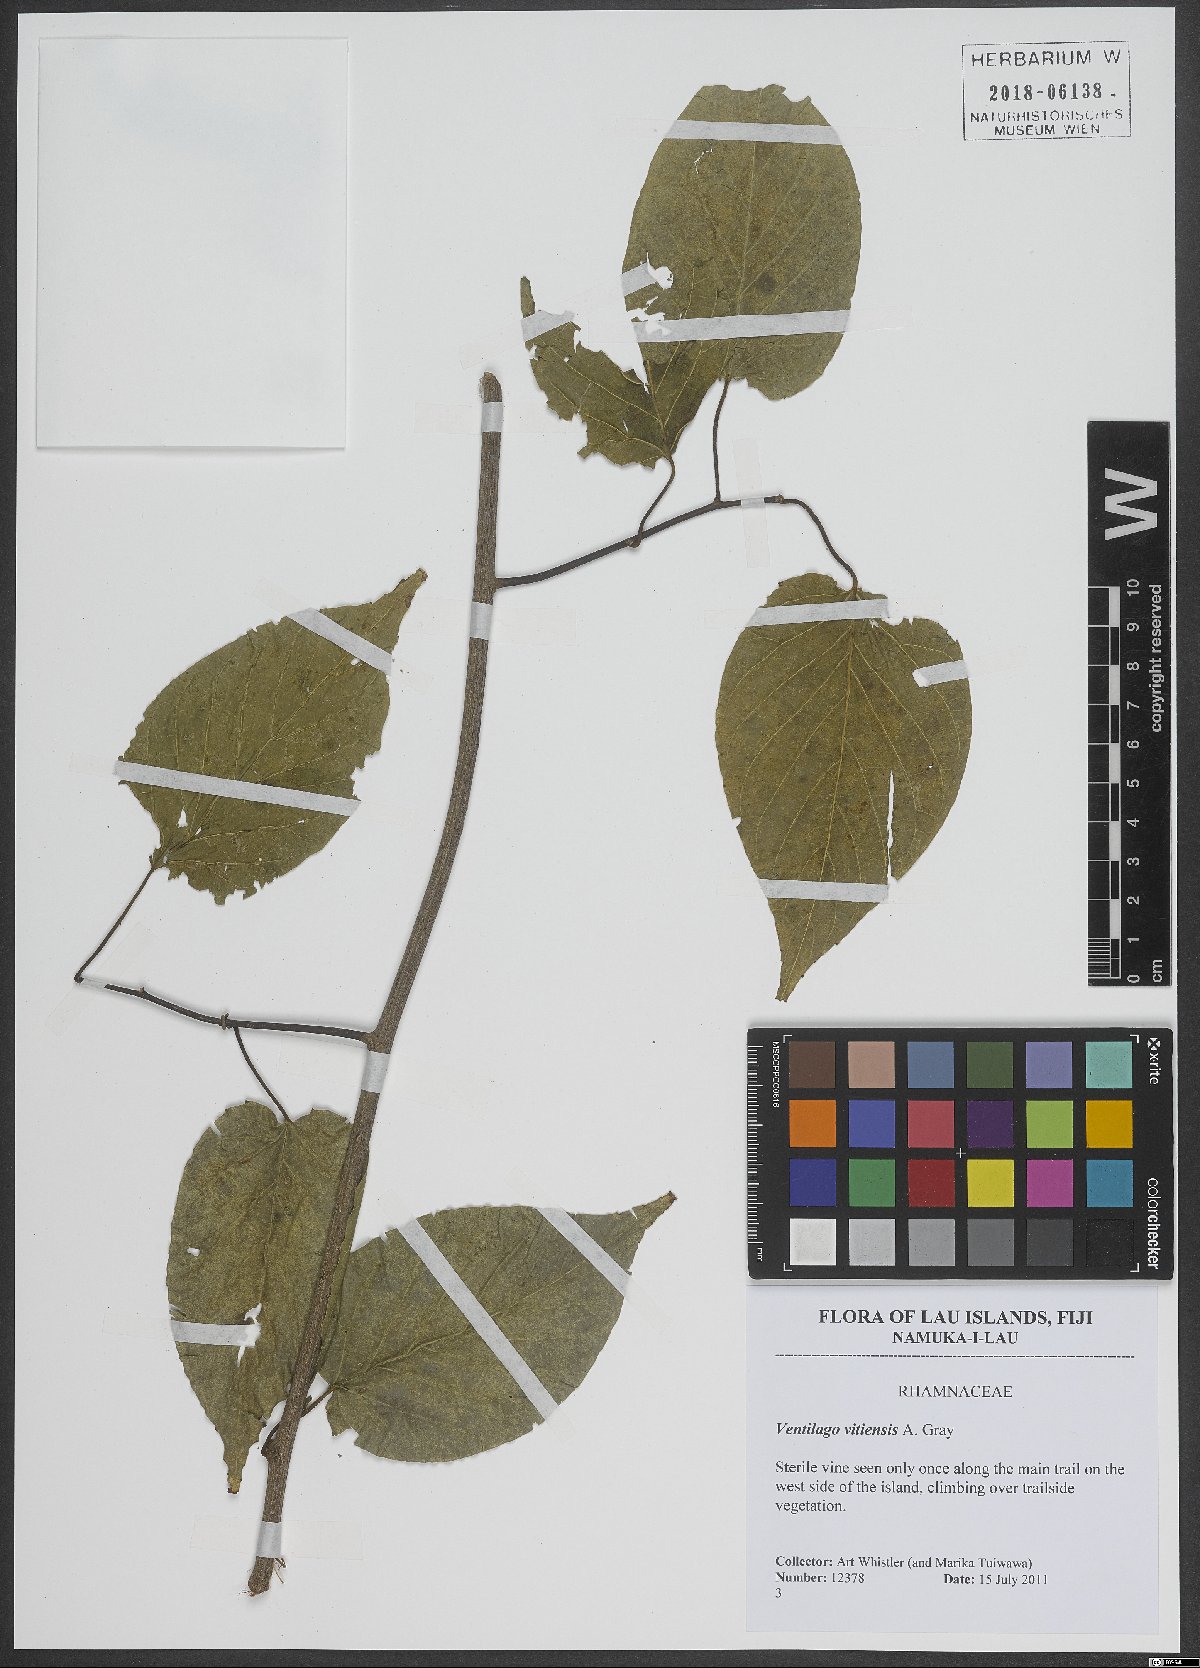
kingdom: Plantae
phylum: Tracheophyta
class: Magnoliopsida
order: Rosales
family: Rhamnaceae
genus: Ventilago
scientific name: Ventilago vitiensis
